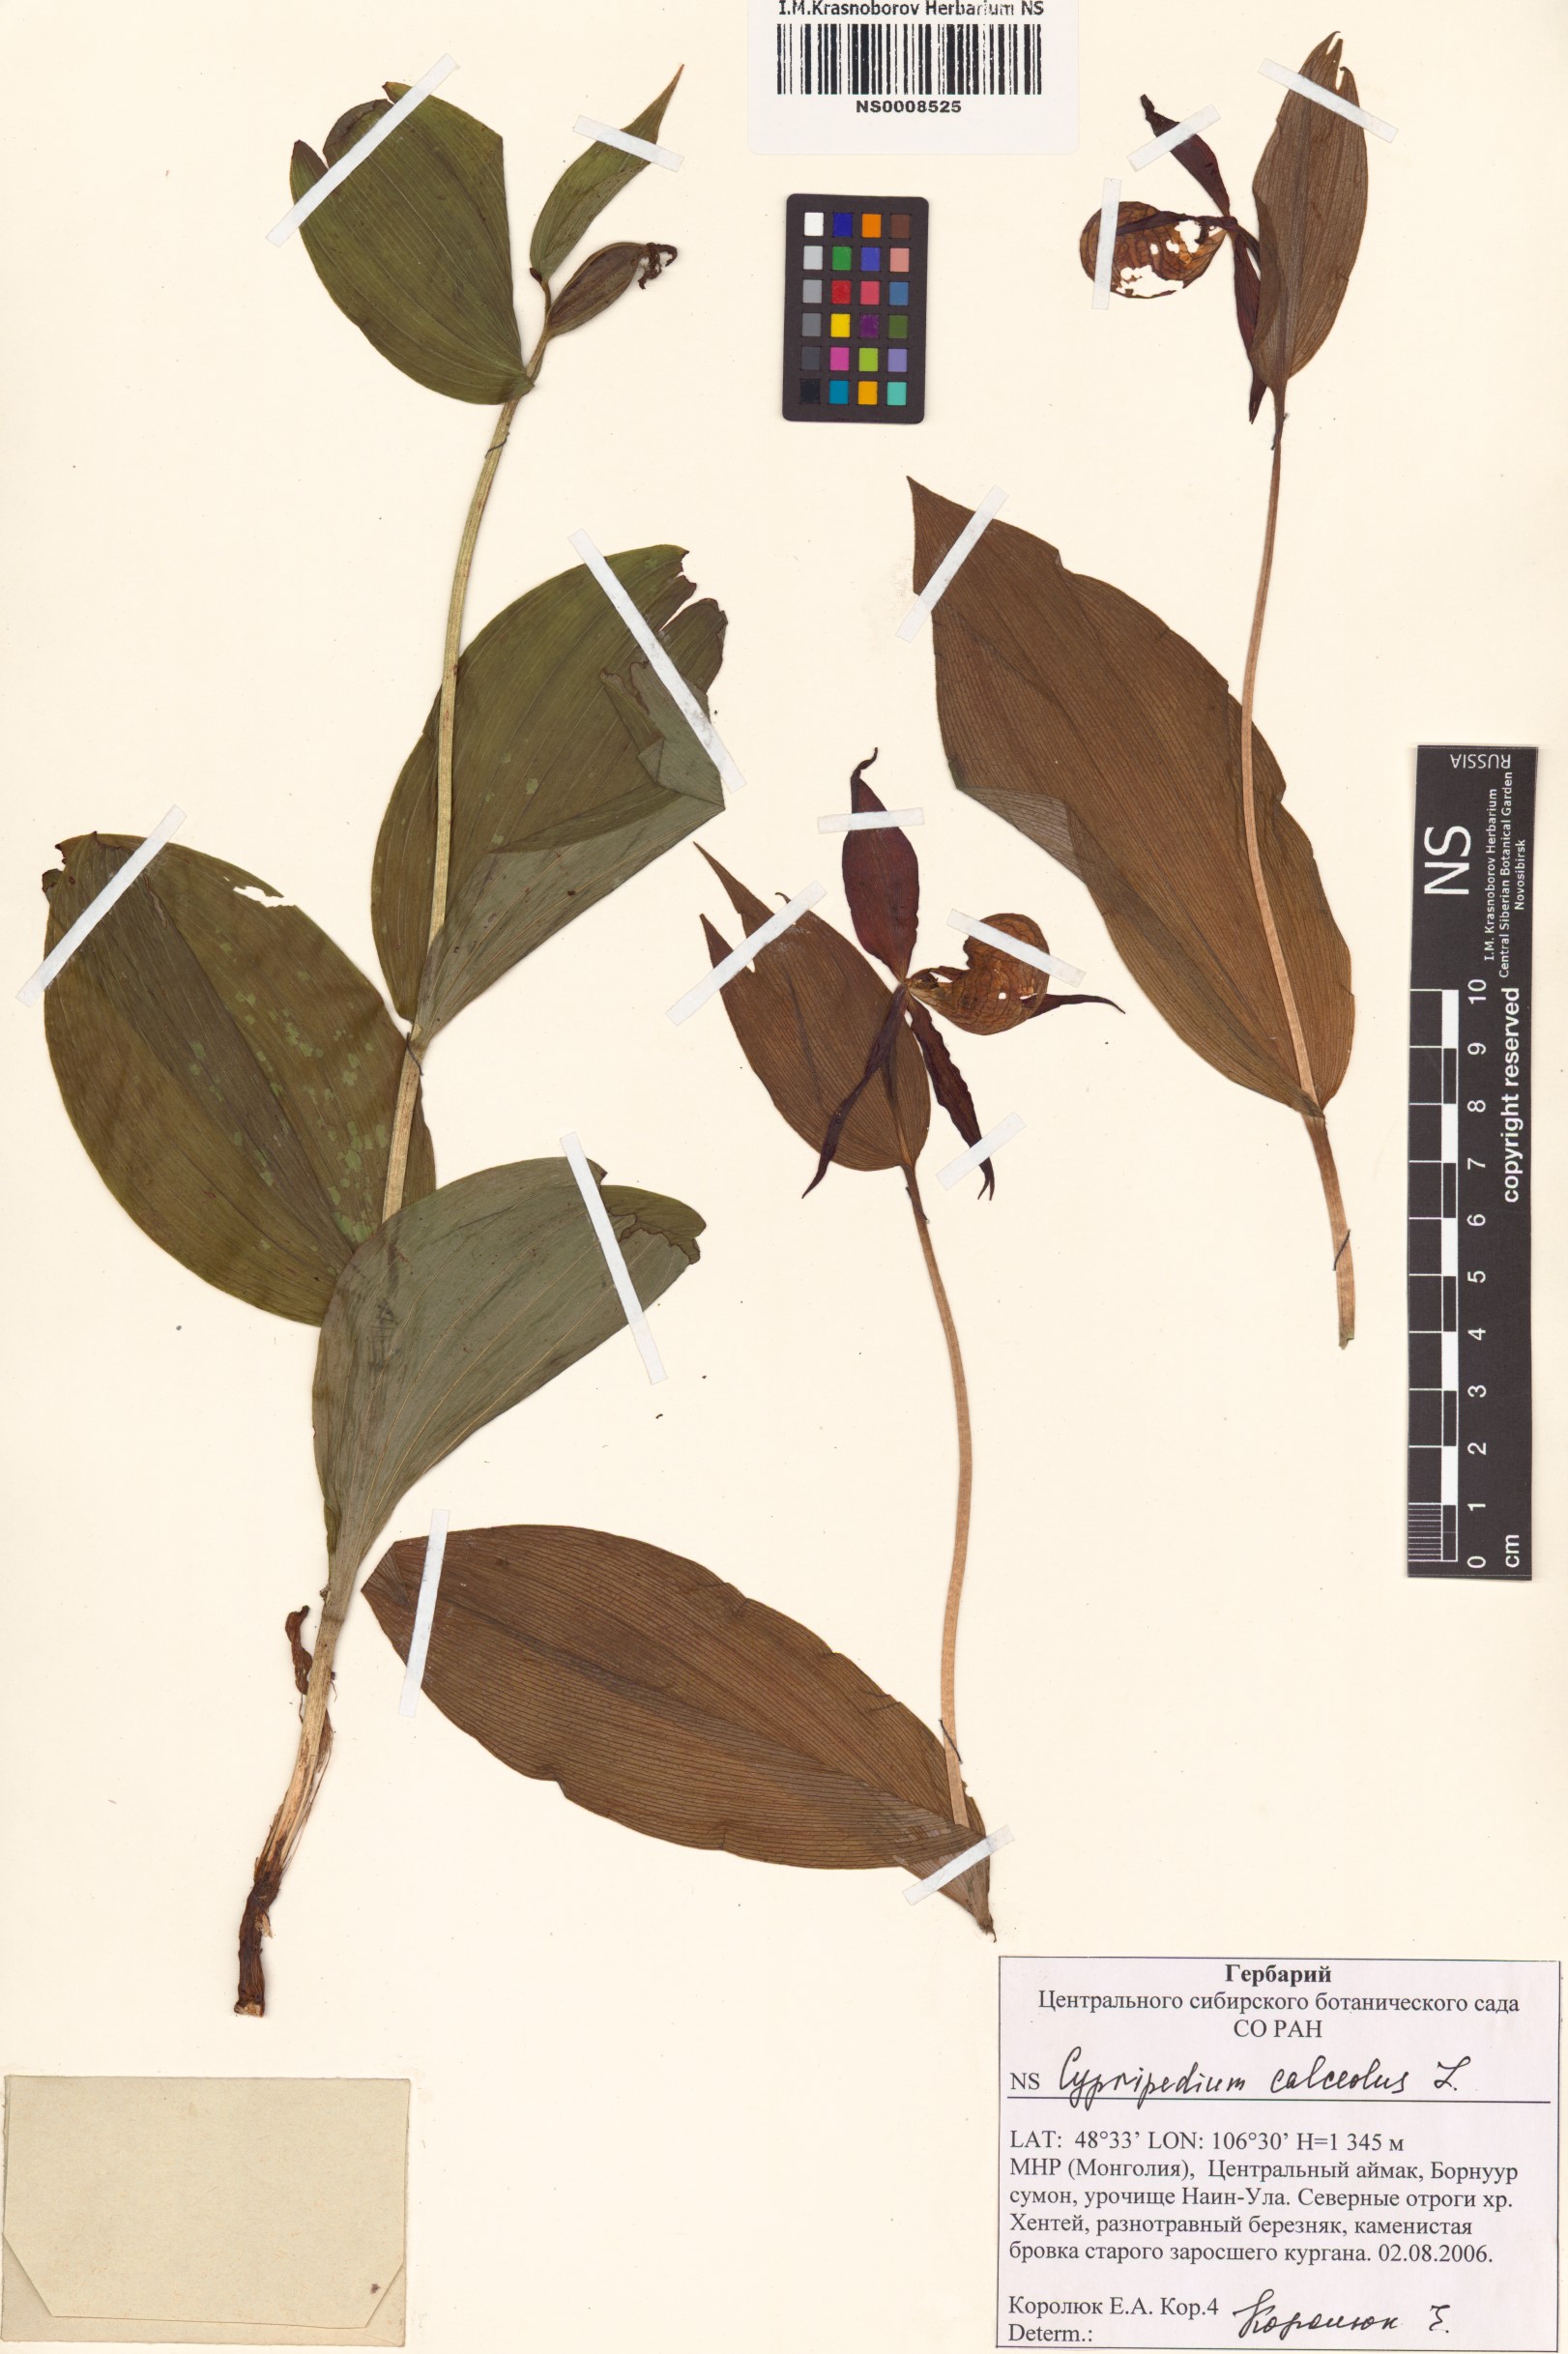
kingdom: Plantae
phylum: Tracheophyta
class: Liliopsida
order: Asparagales
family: Orchidaceae
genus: Cypripedium
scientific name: Cypripedium calceolus
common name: Lady's-slipper
